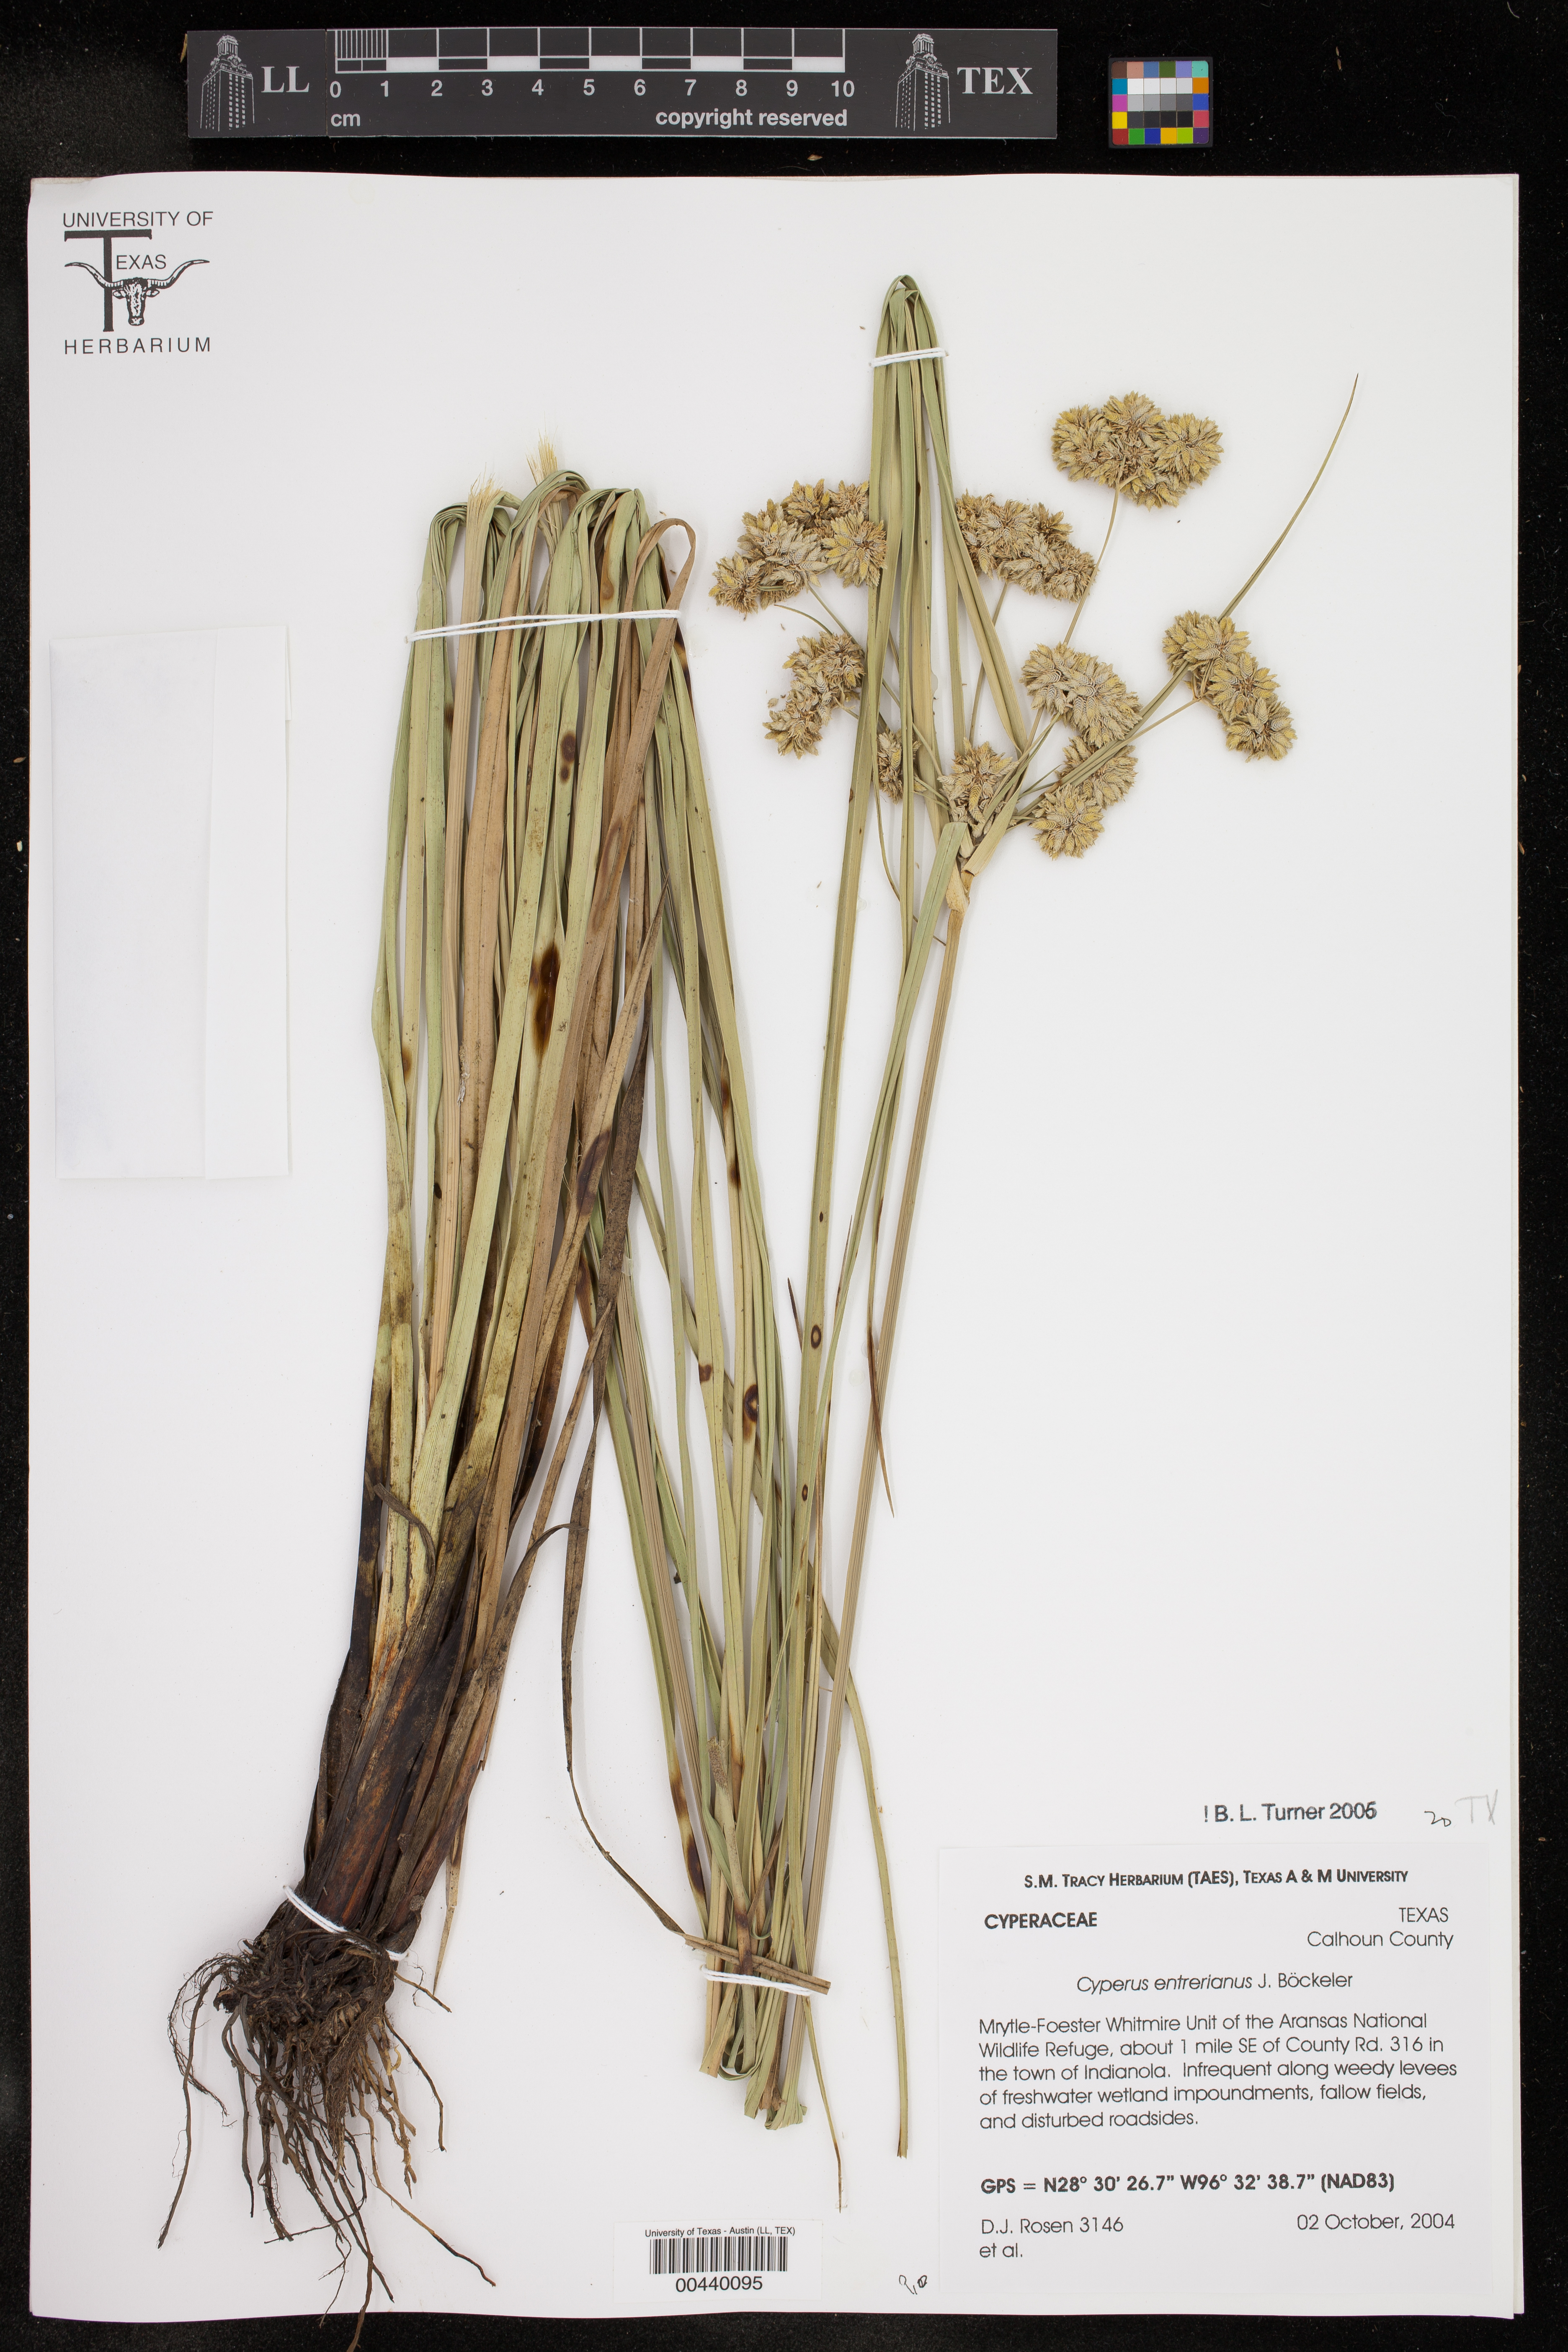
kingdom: Plantae
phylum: Tracheophyta
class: Liliopsida
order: Poales
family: Cyperaceae
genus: Cyperus
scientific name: Cyperus entrerianus
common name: Woodrush flatsedge
